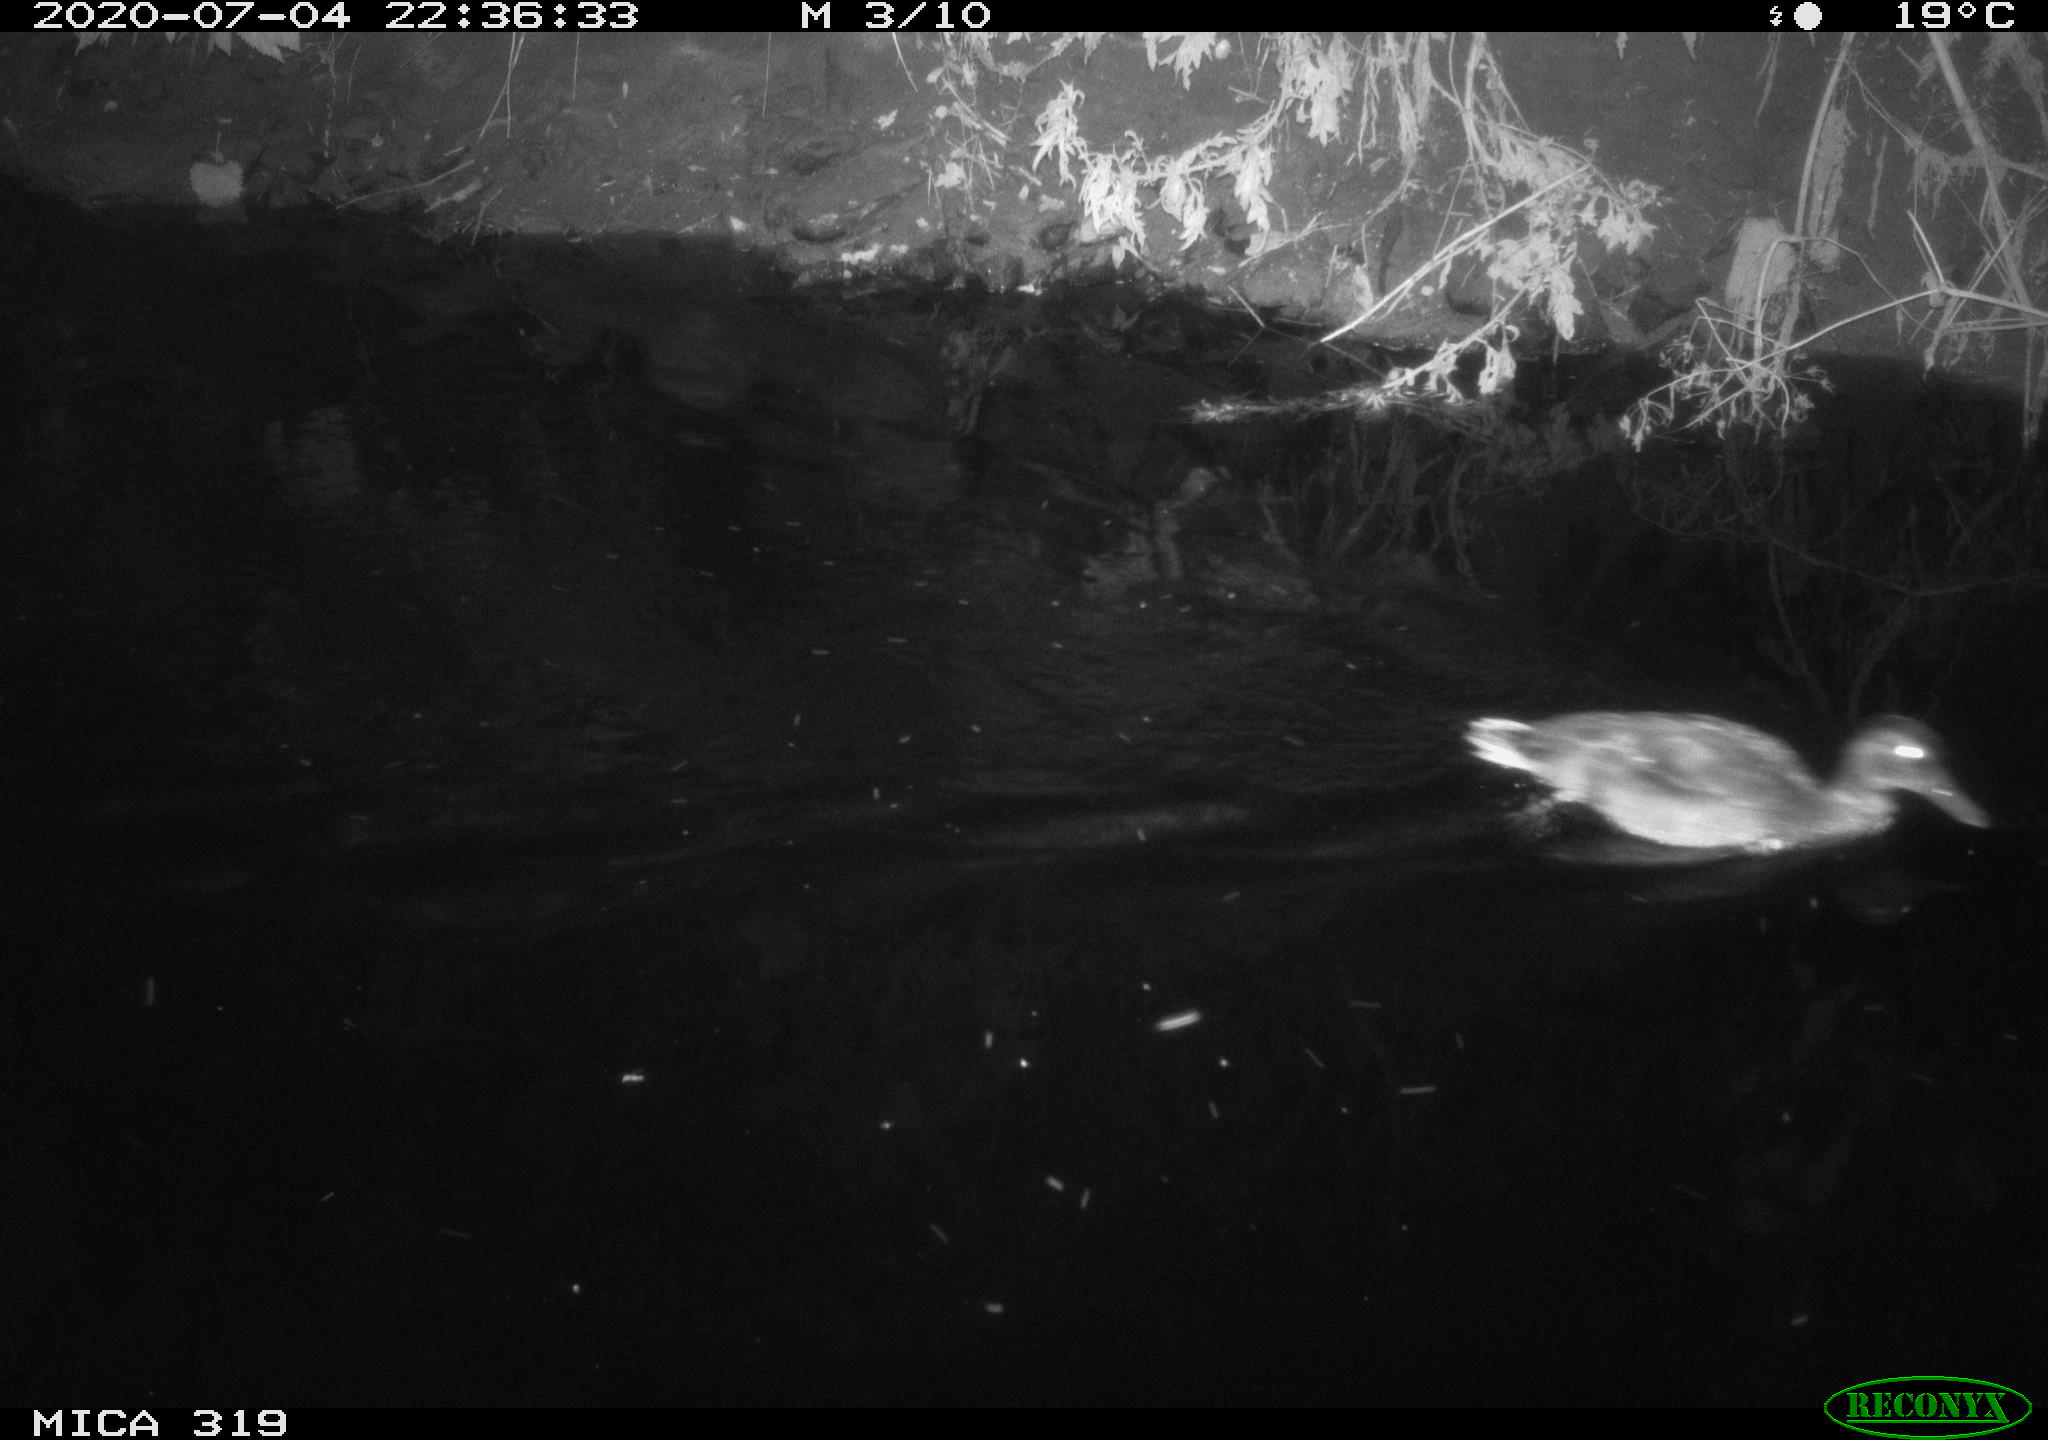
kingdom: Animalia
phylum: Chordata
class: Aves
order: Anseriformes
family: Anatidae
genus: Anas
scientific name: Anas platyrhynchos
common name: Mallard
